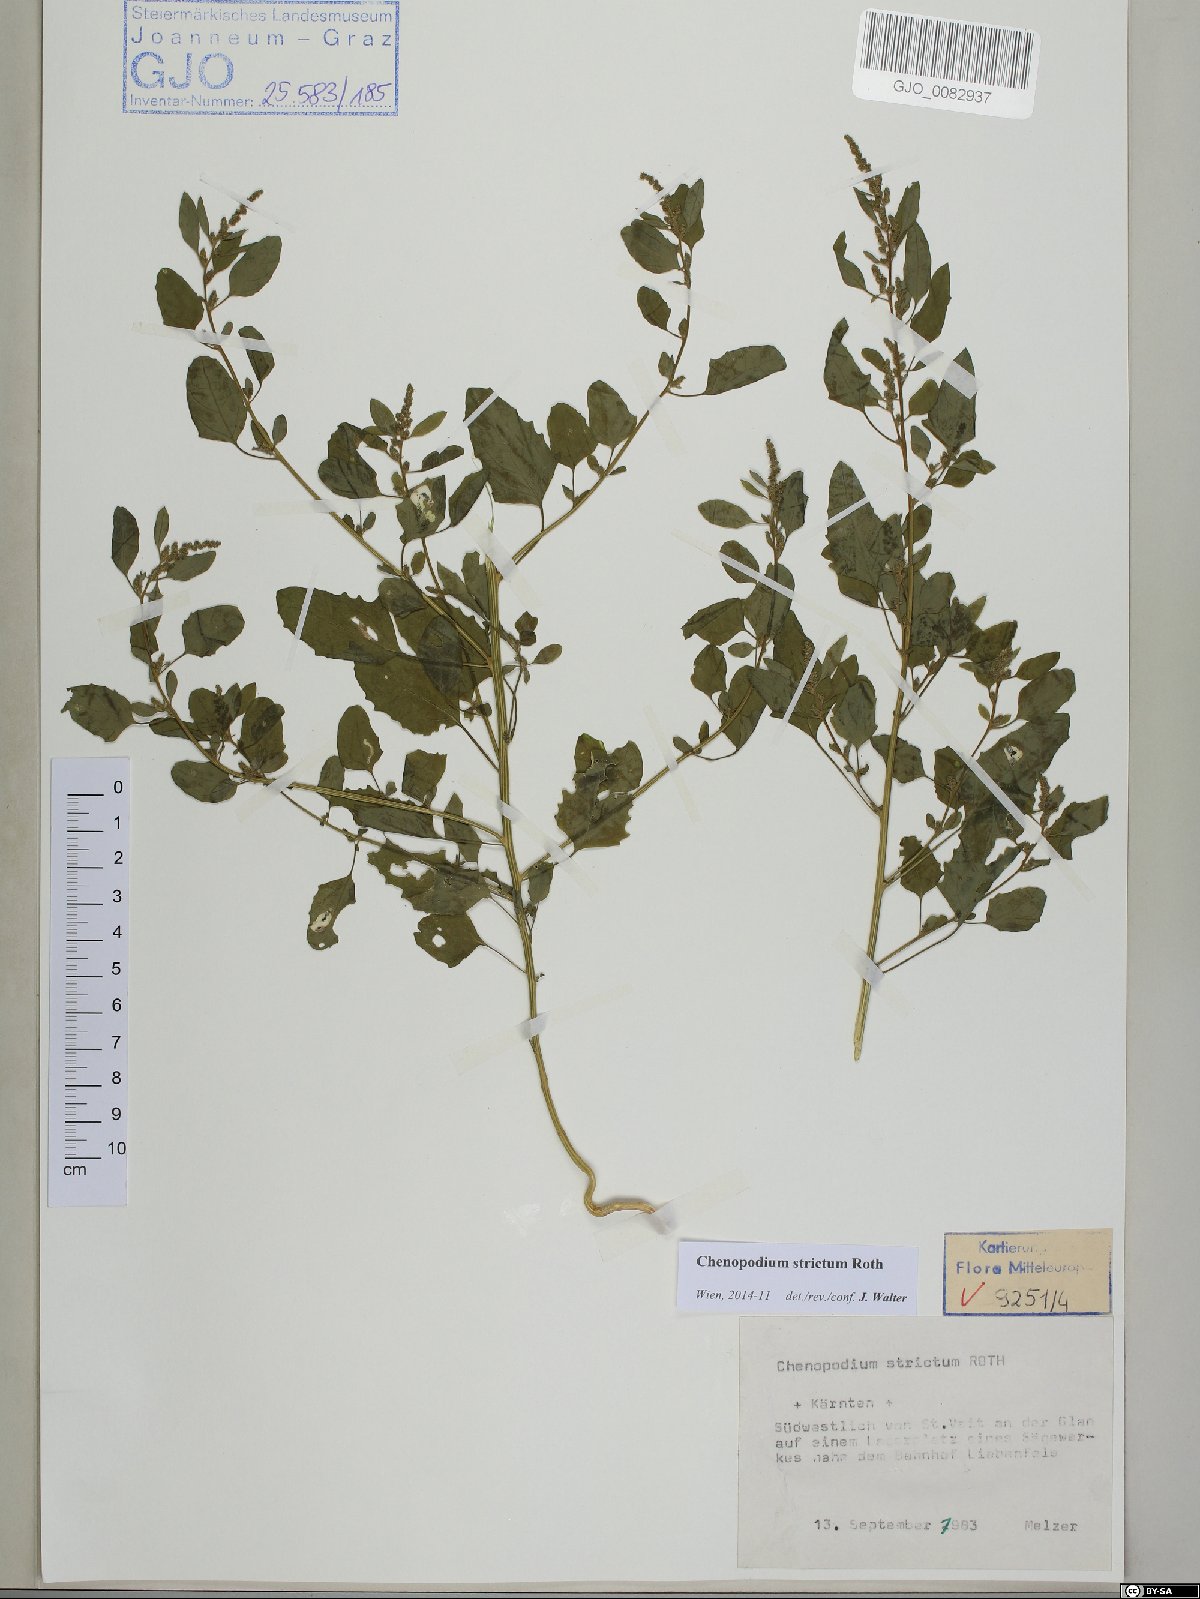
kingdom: Plantae
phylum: Tracheophyta
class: Magnoliopsida
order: Caryophyllales
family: Amaranthaceae
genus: Chenopodium
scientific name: Chenopodium album
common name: Fat-hen
